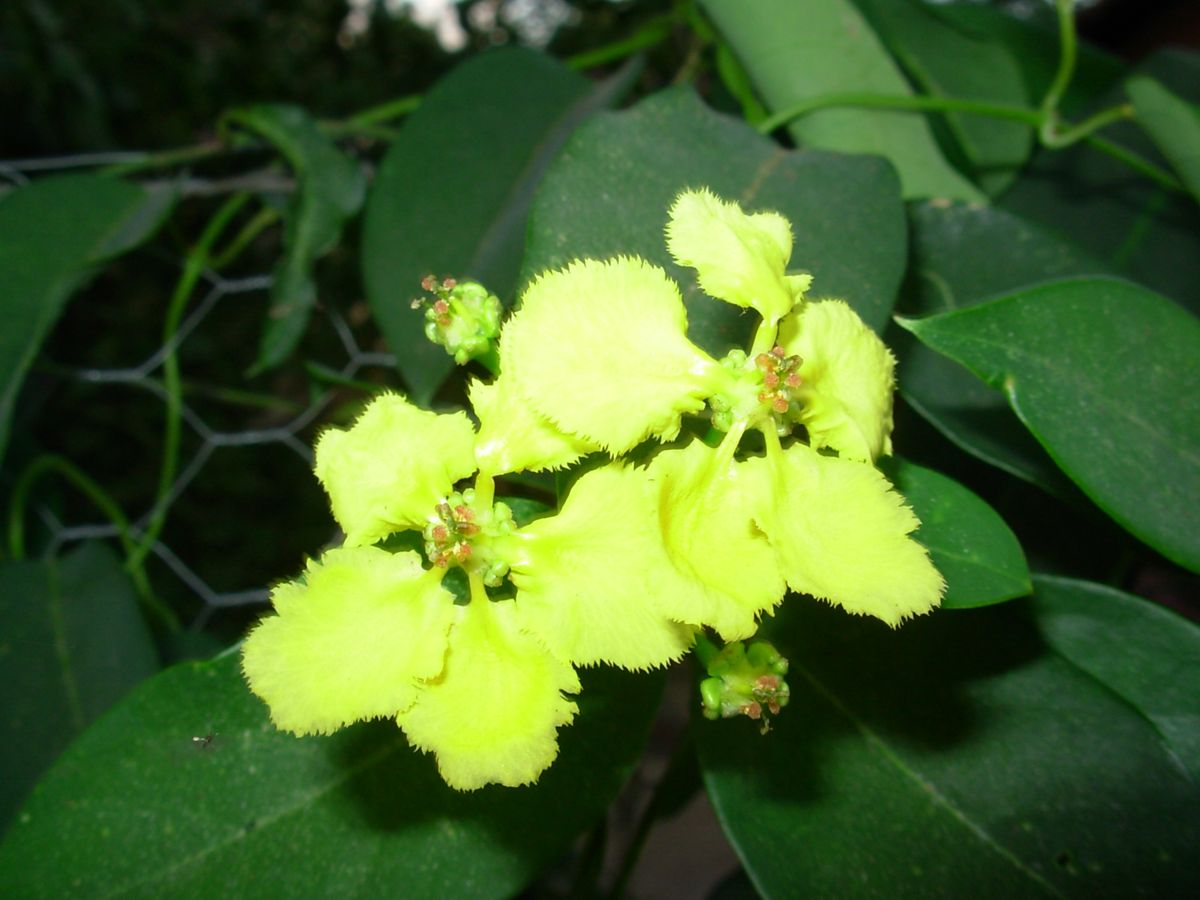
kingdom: Plantae
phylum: Tracheophyta
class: Magnoliopsida
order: Malpighiales
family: Malpighiaceae
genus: Stigmaphyllon
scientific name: Stigmaphyllon ellipticum
